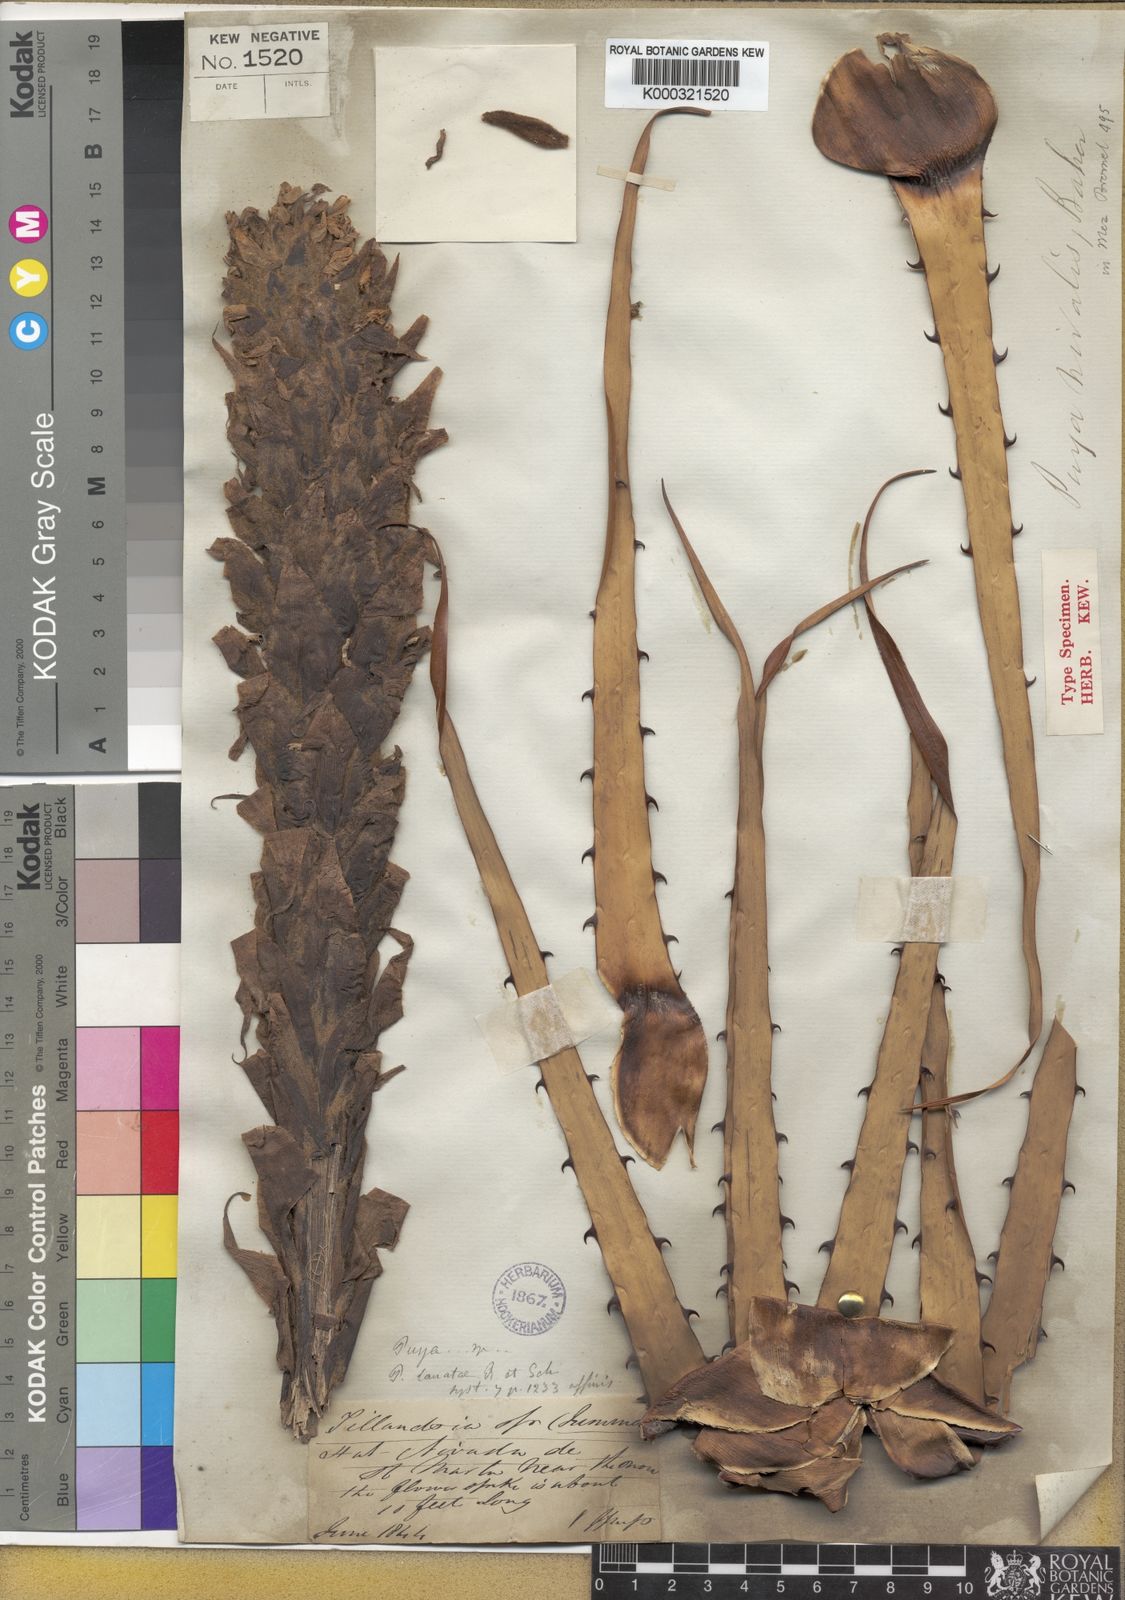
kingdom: Plantae
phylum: Tracheophyta
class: Liliopsida
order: Poales
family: Bromeliaceae
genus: Puya
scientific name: Puya nivalis
